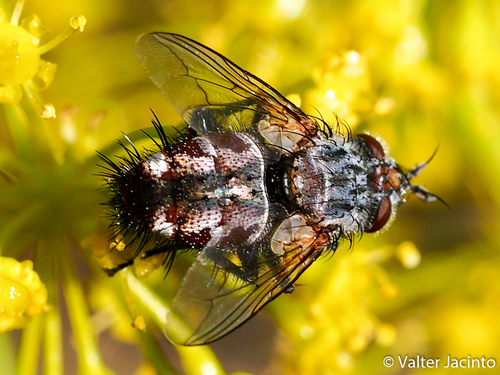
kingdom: Animalia
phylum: Arthropoda
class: Insecta
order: Diptera
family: Tachinidae
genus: Linnaemya
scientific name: Linnaemya soror
